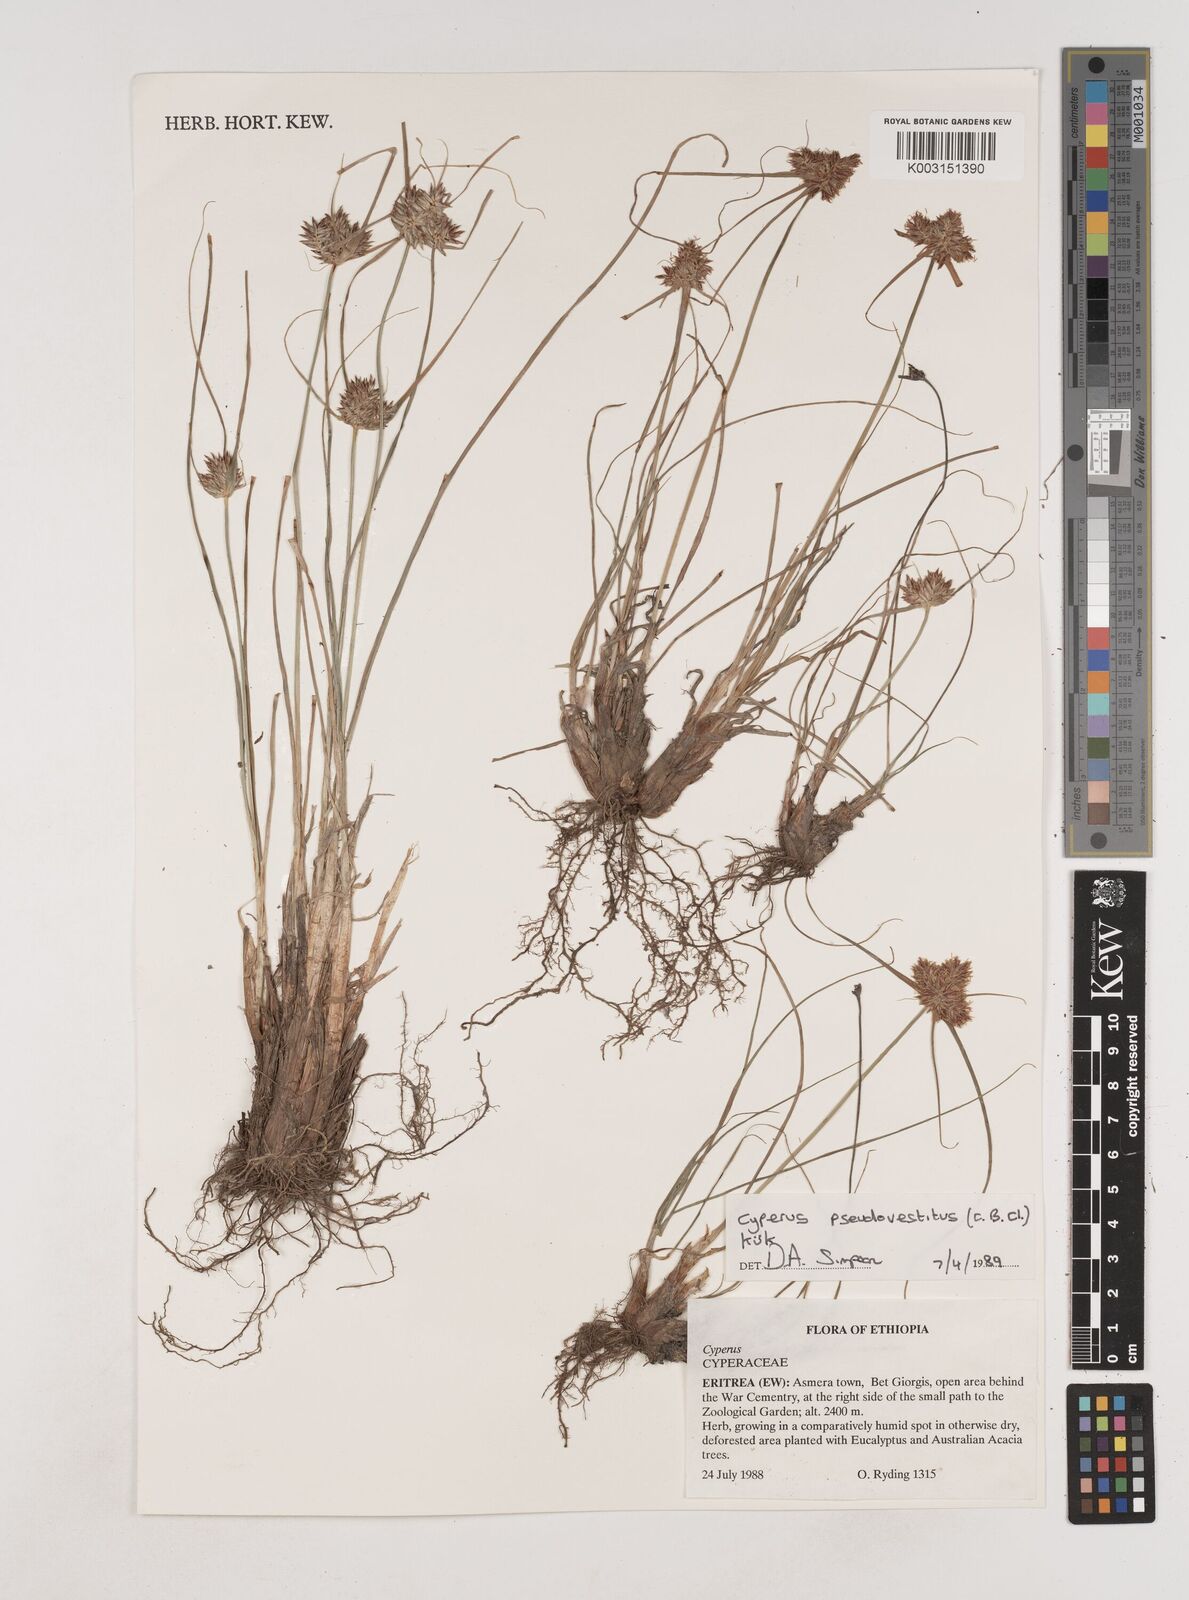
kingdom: Plantae
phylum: Tracheophyta
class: Liliopsida
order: Poales
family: Cyperaceae
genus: Cyperus
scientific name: Cyperus pseudovestitus
